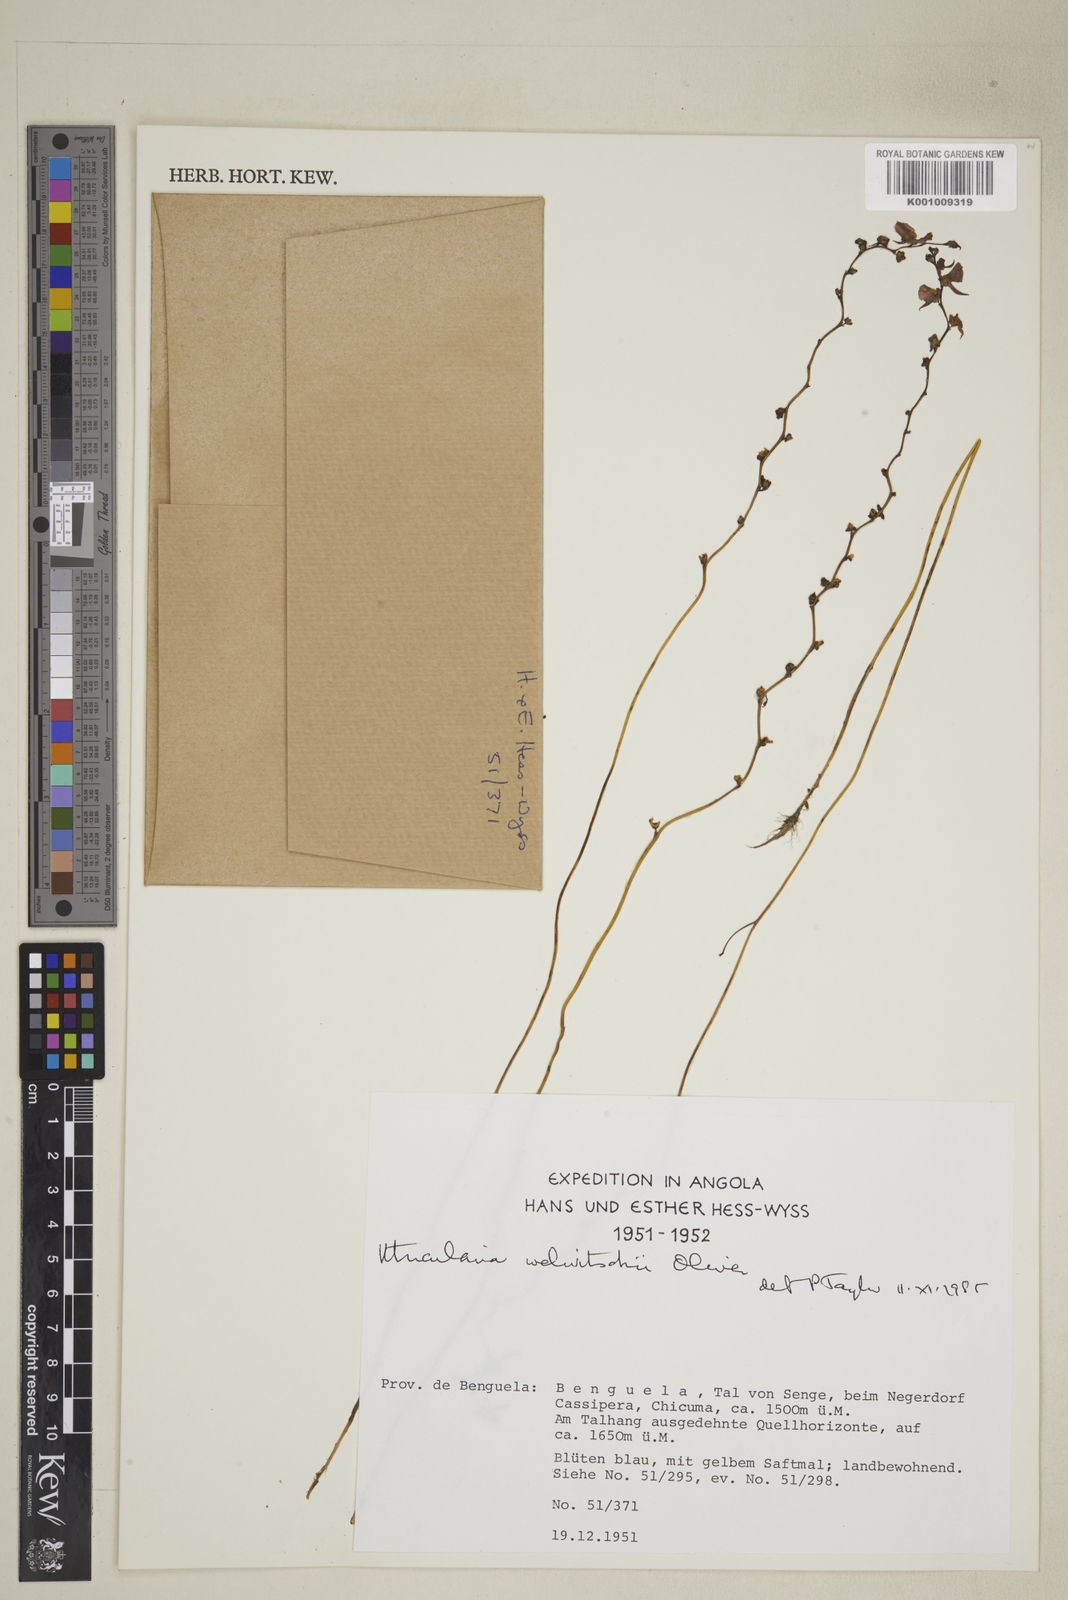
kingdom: Plantae
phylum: Tracheophyta
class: Magnoliopsida
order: Lamiales
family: Lentibulariaceae
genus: Utricularia
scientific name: Utricularia welwitschii
